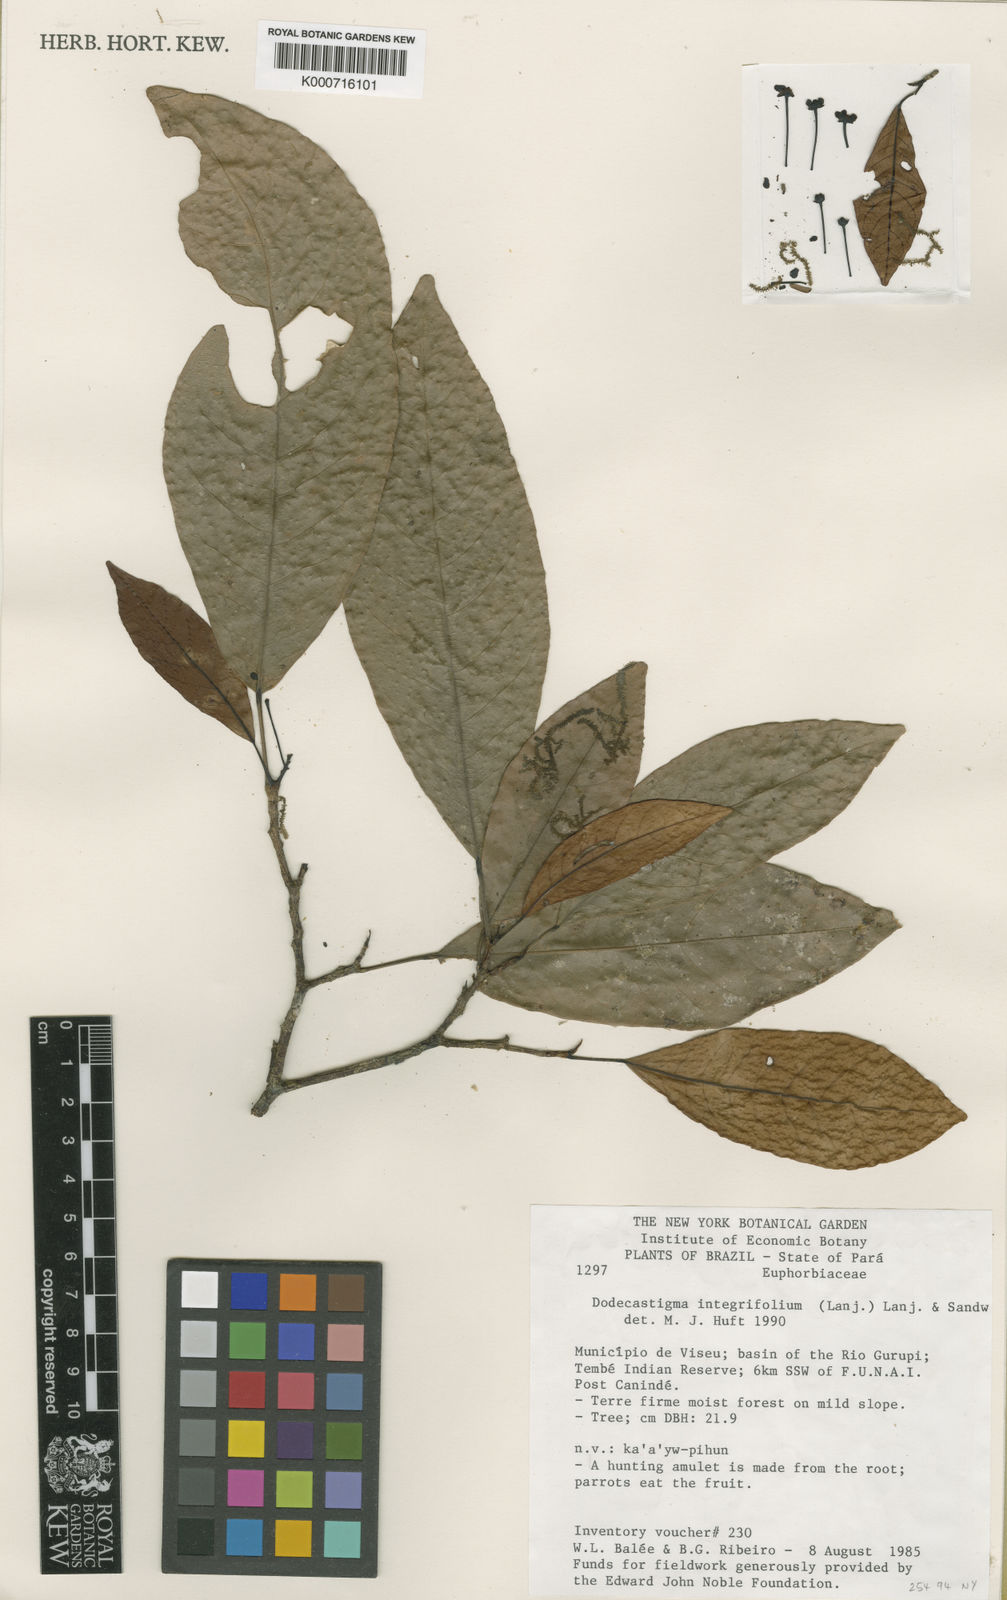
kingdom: Plantae
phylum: Tracheophyta
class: Magnoliopsida
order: Malpighiales
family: Euphorbiaceae
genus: Dodecastigma
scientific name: Dodecastigma integrifolium
